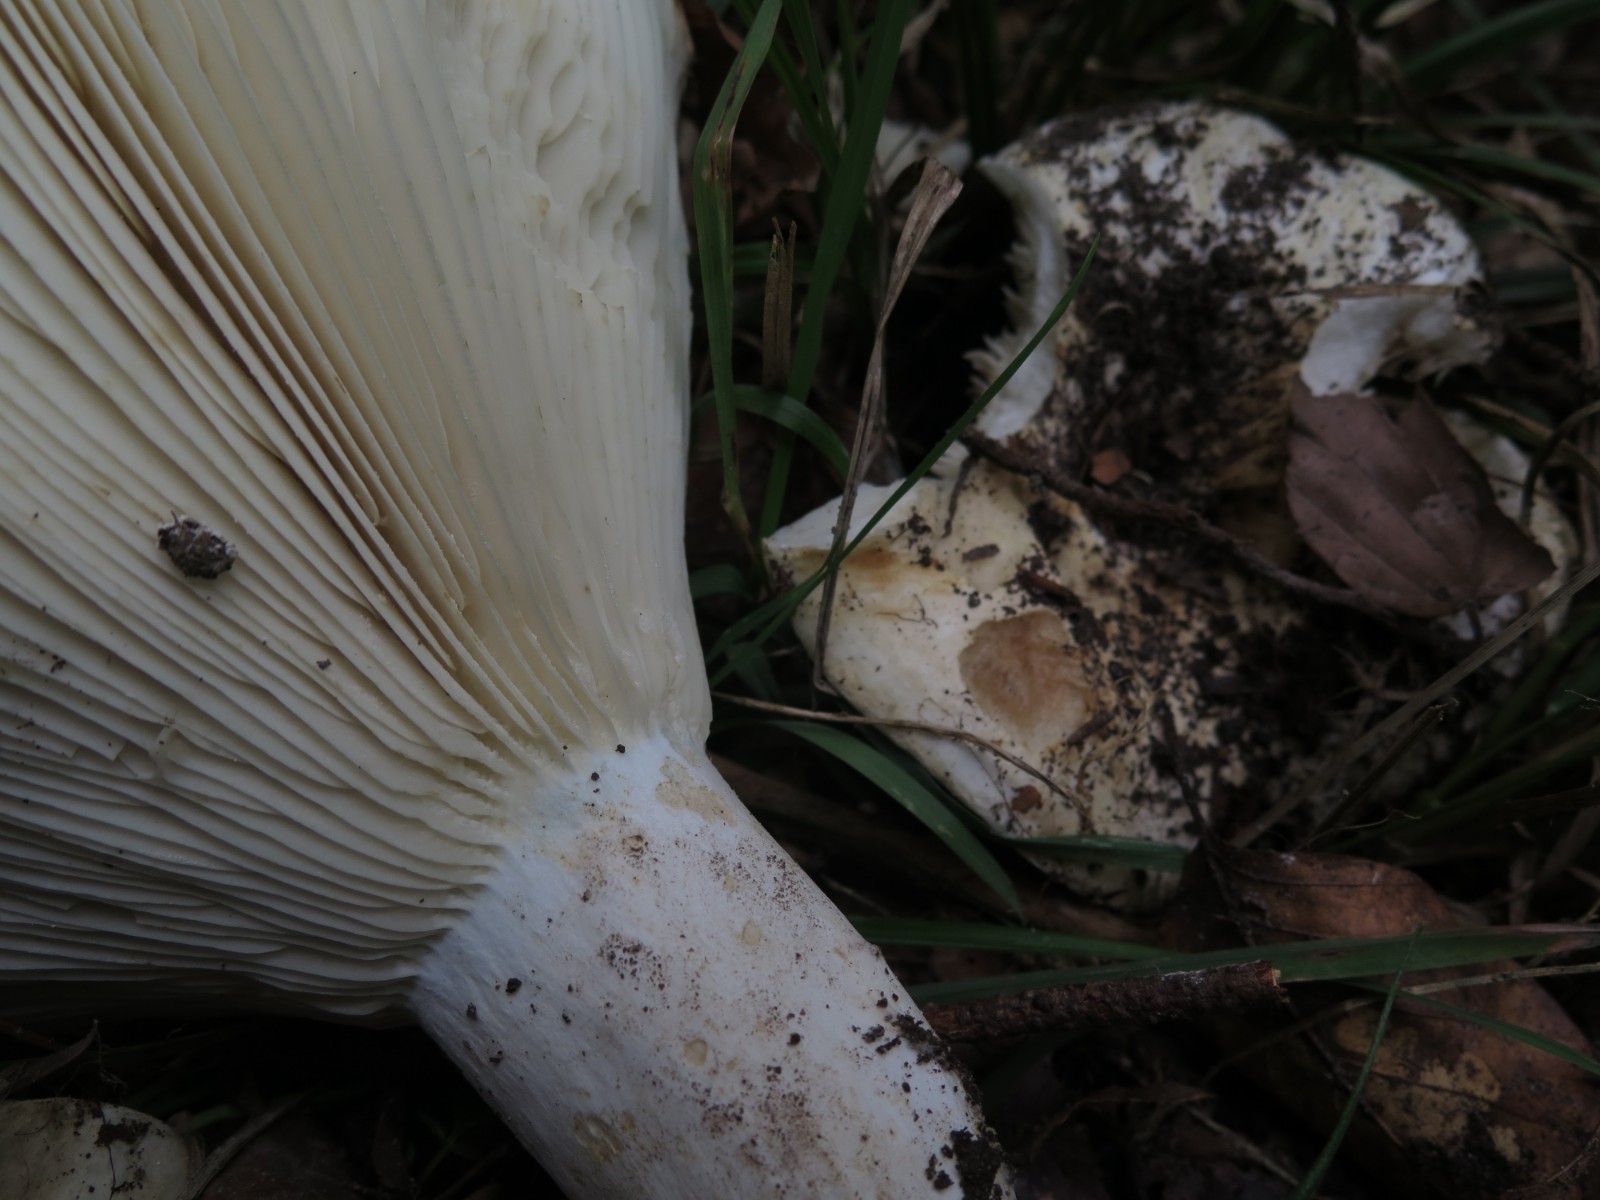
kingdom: Fungi
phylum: Basidiomycota
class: Agaricomycetes
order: Russulales
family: Russulaceae
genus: Russula
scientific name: Russula chloroides
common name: grønhalset tragt-skørhat
